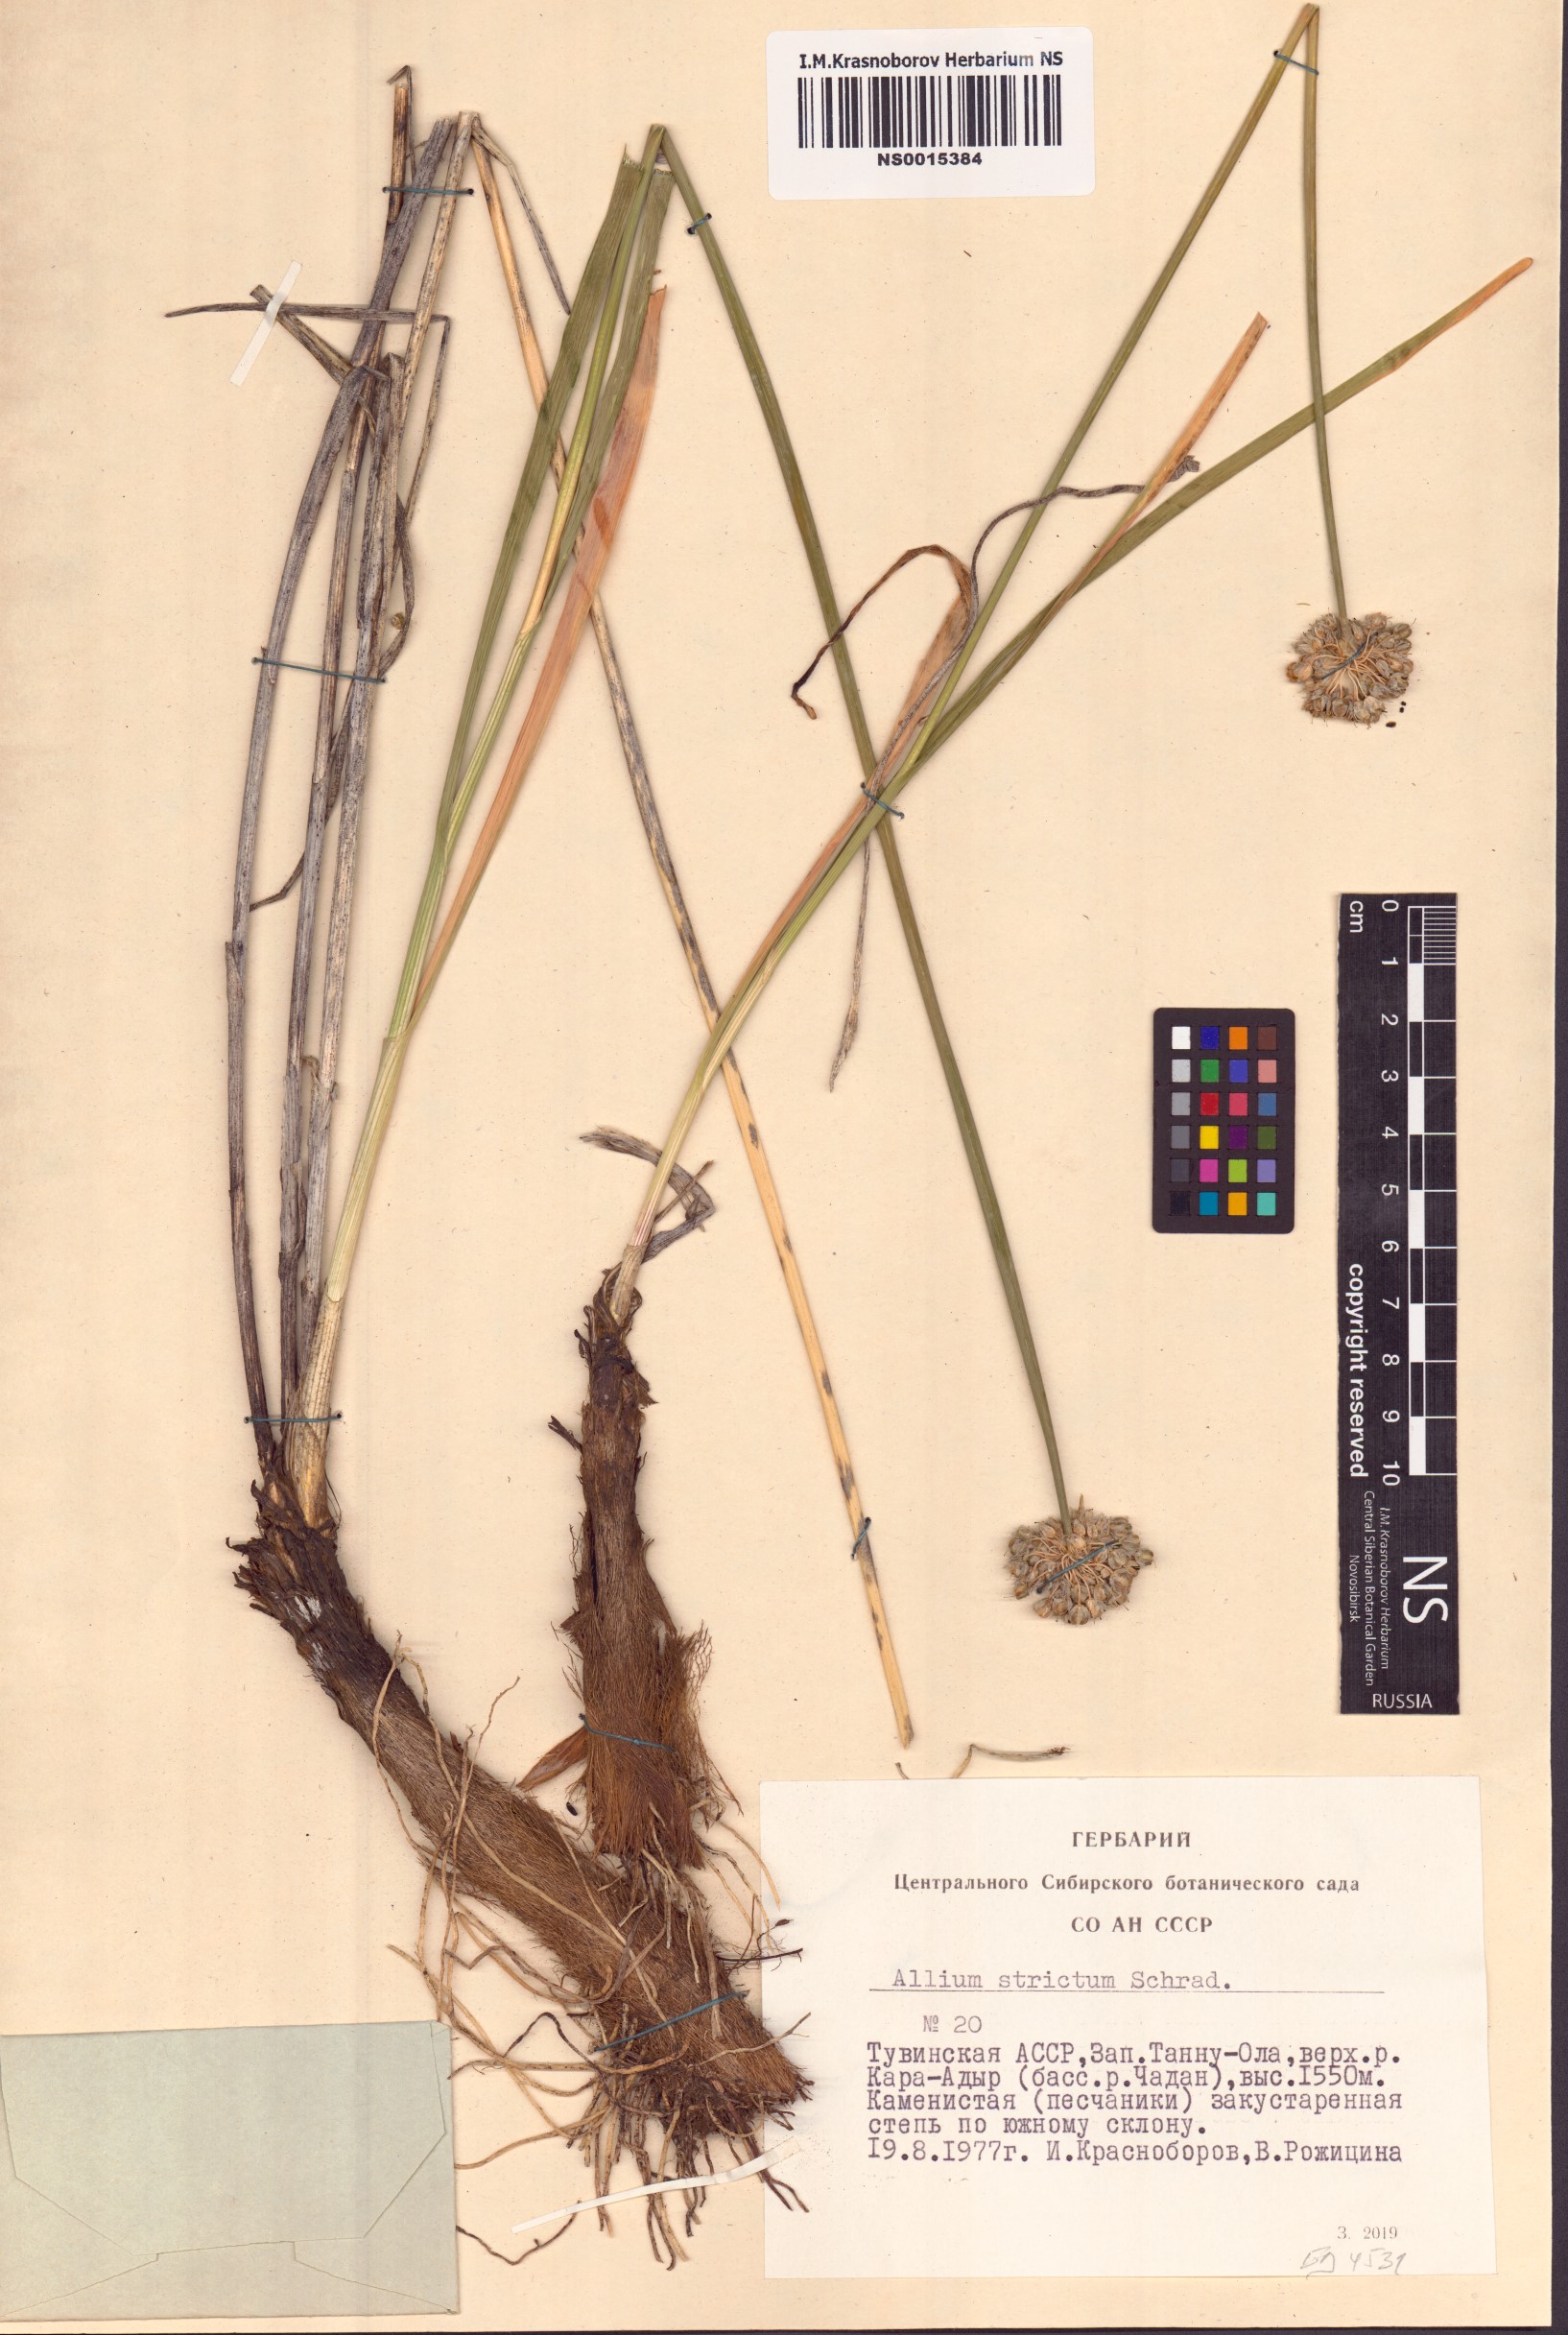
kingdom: Plantae
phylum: Tracheophyta
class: Liliopsida
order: Asparagales
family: Amaryllidaceae
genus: Allium
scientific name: Allium strictum
